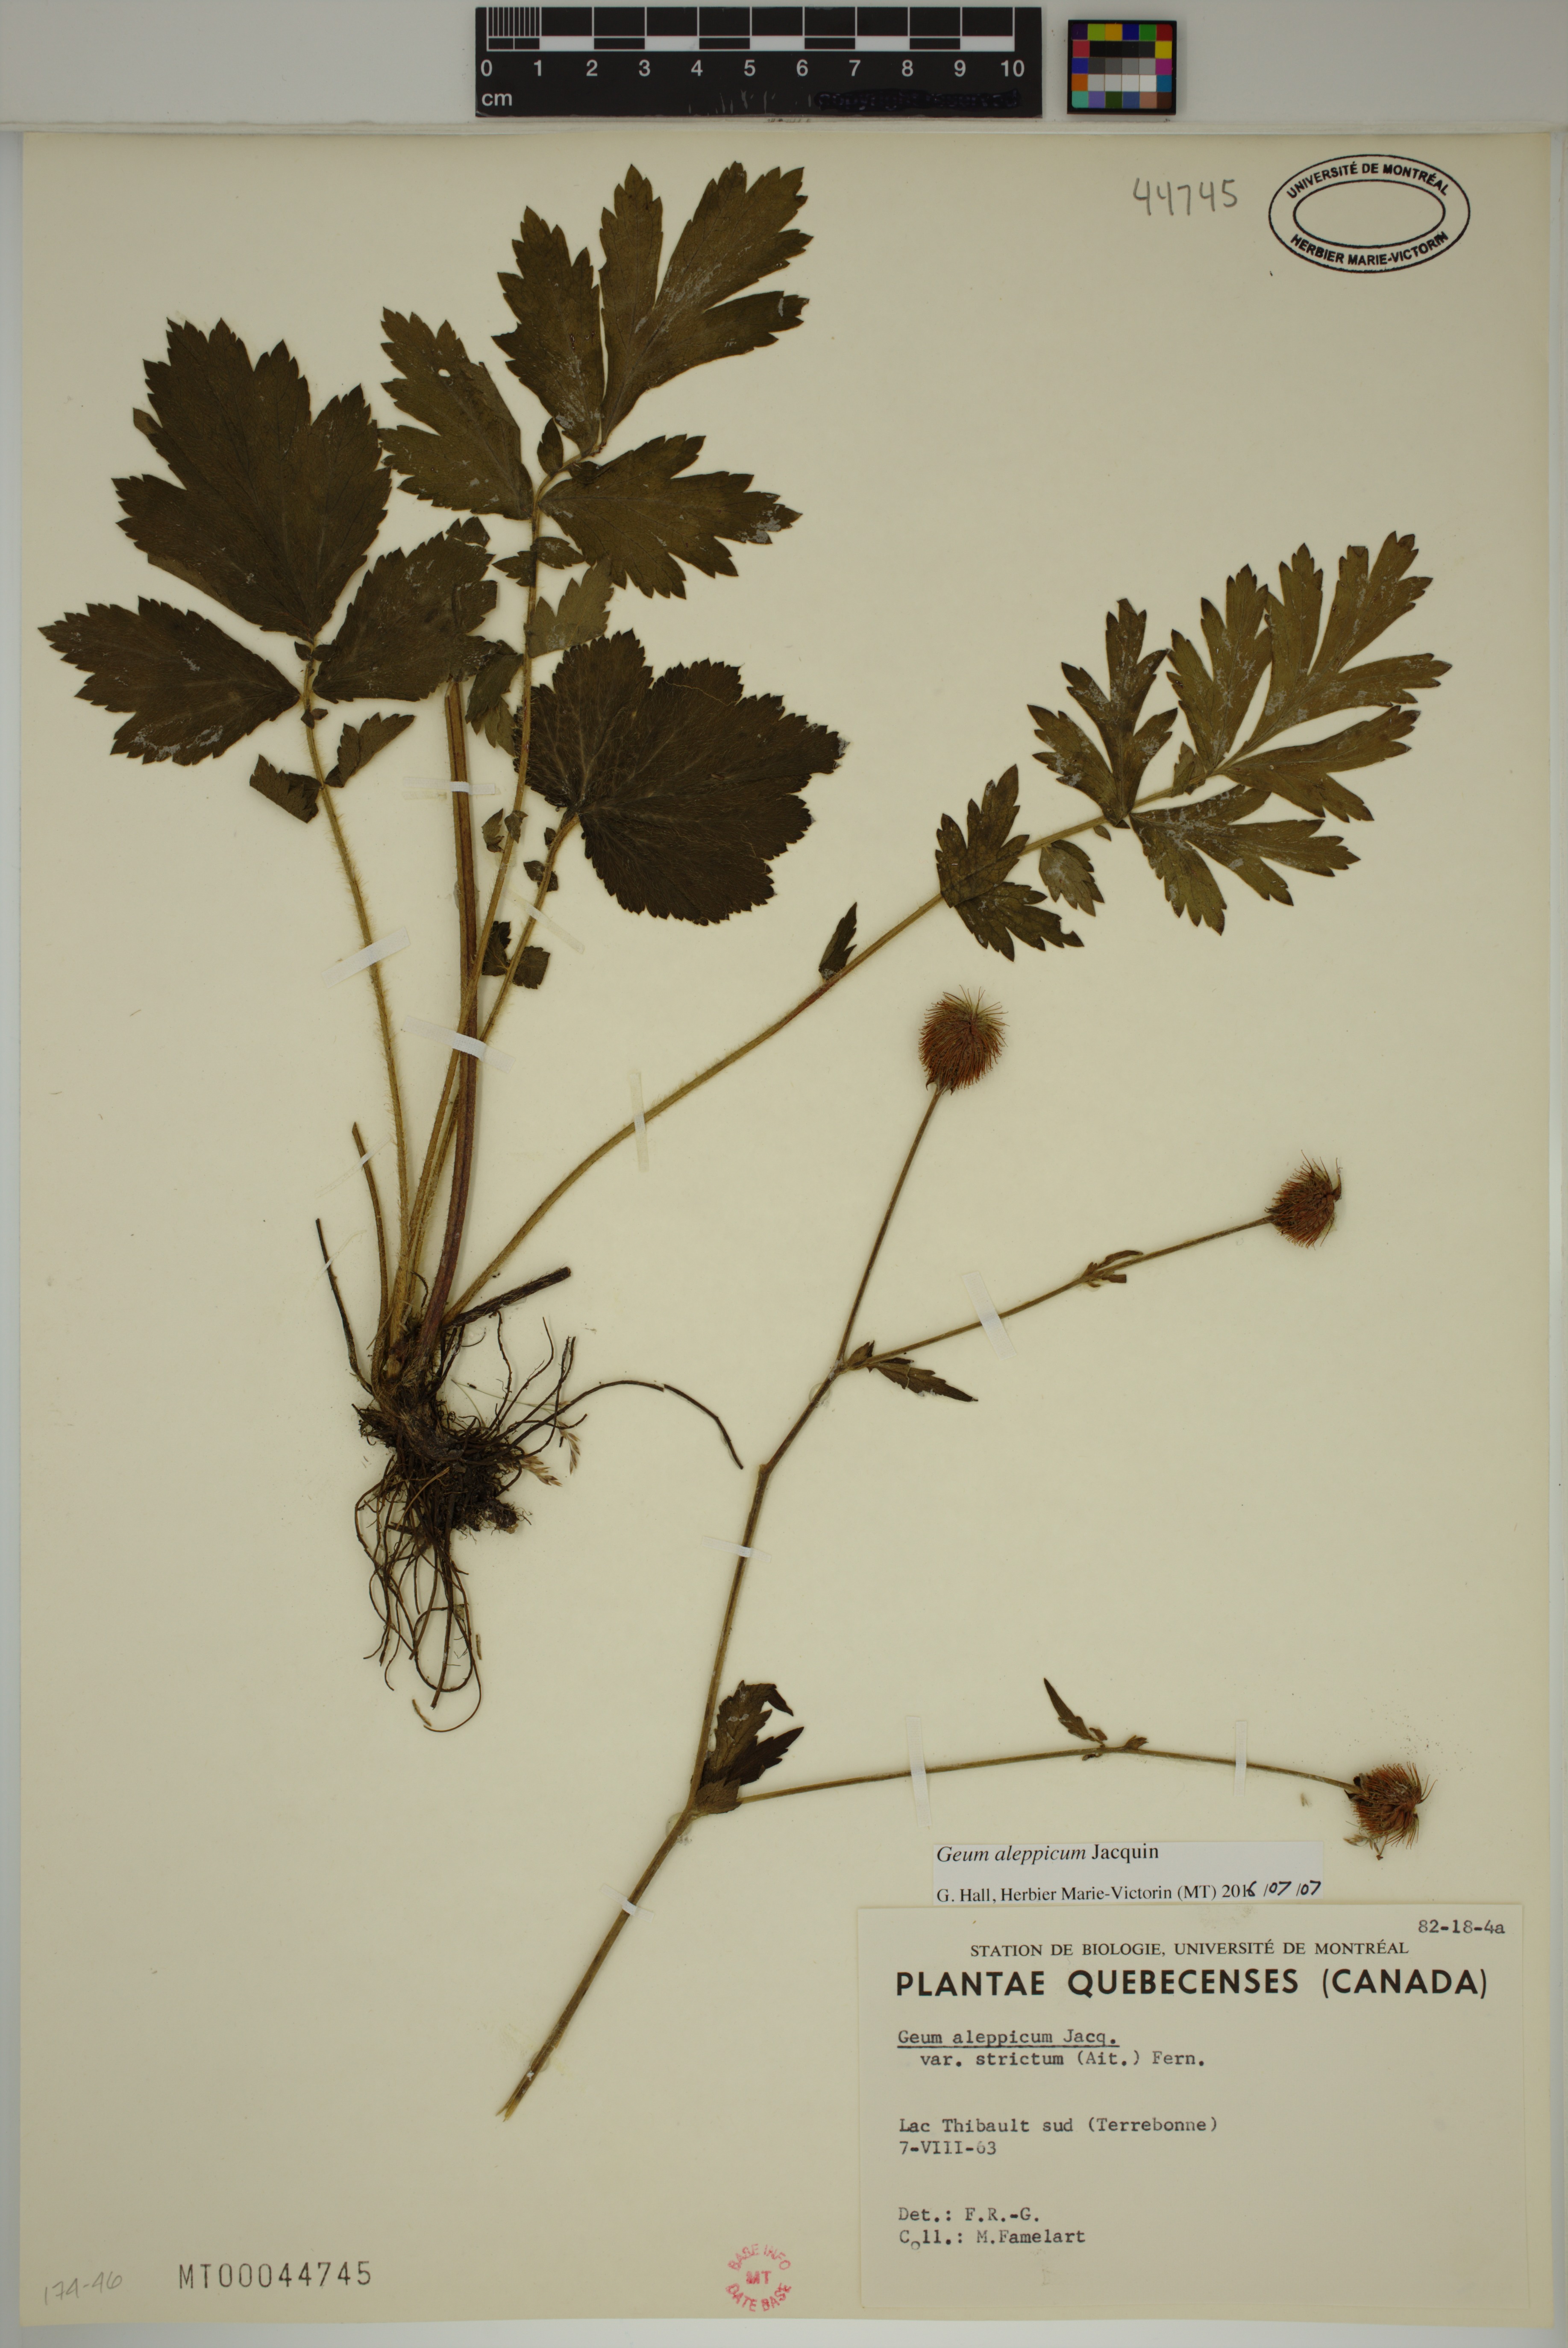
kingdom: Plantae
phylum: Tracheophyta
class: Magnoliopsida
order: Rosales
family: Rosaceae
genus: Geum
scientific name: Geum aleppicum
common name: Yellow avens
